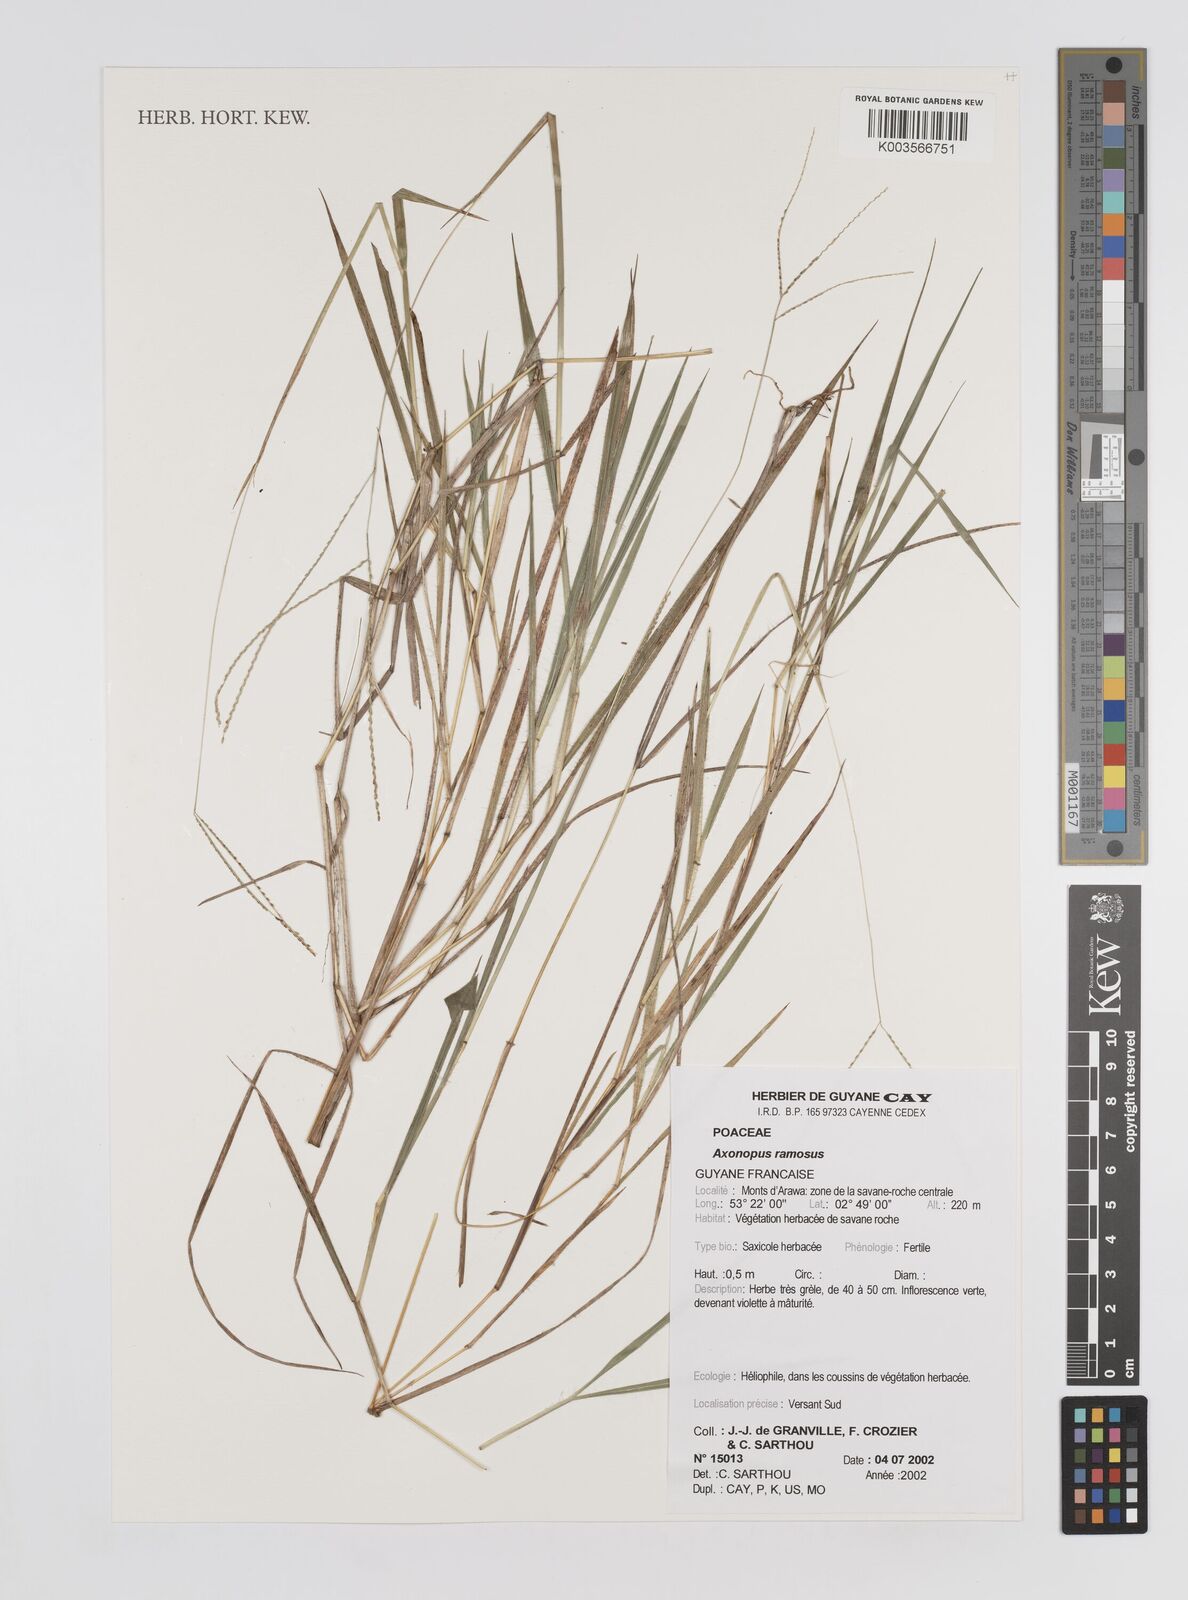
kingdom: Plantae
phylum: Tracheophyta
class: Liliopsida
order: Poales
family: Poaceae
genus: Axonopus
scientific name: Axonopus ramosus
